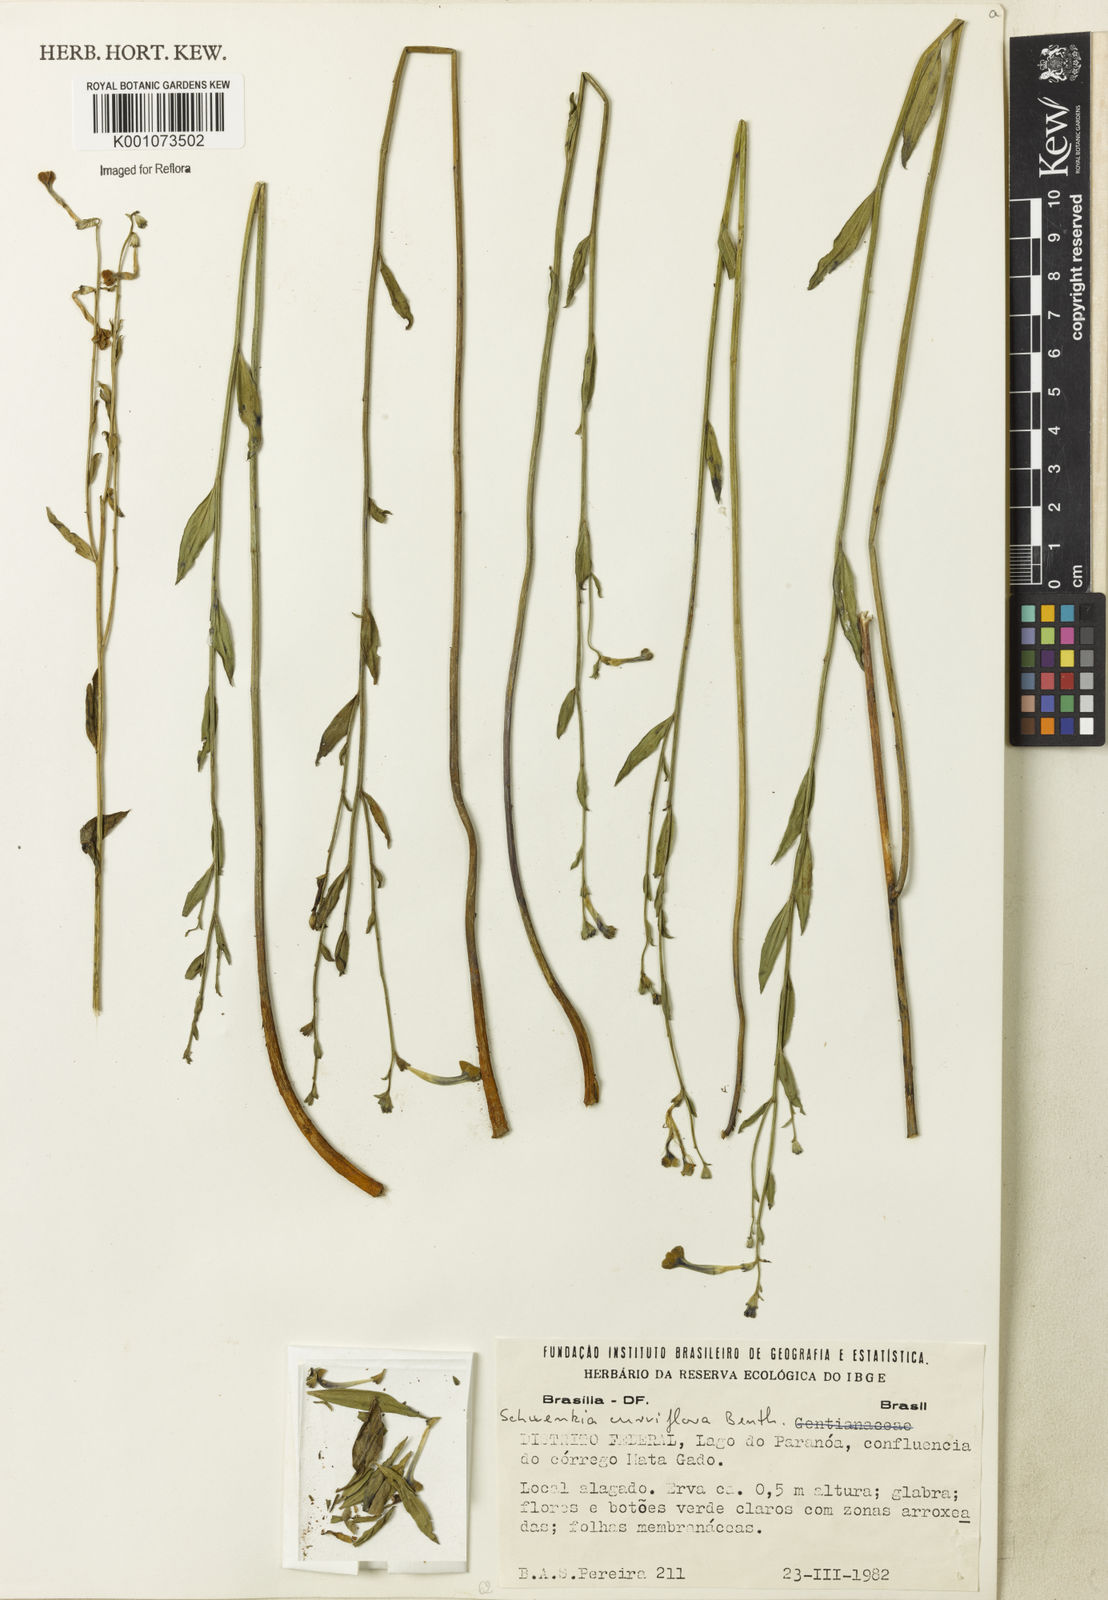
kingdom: Plantae
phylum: Tracheophyta
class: Magnoliopsida
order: Solanales
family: Solanaceae
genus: Schwenckia
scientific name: Schwenckia
